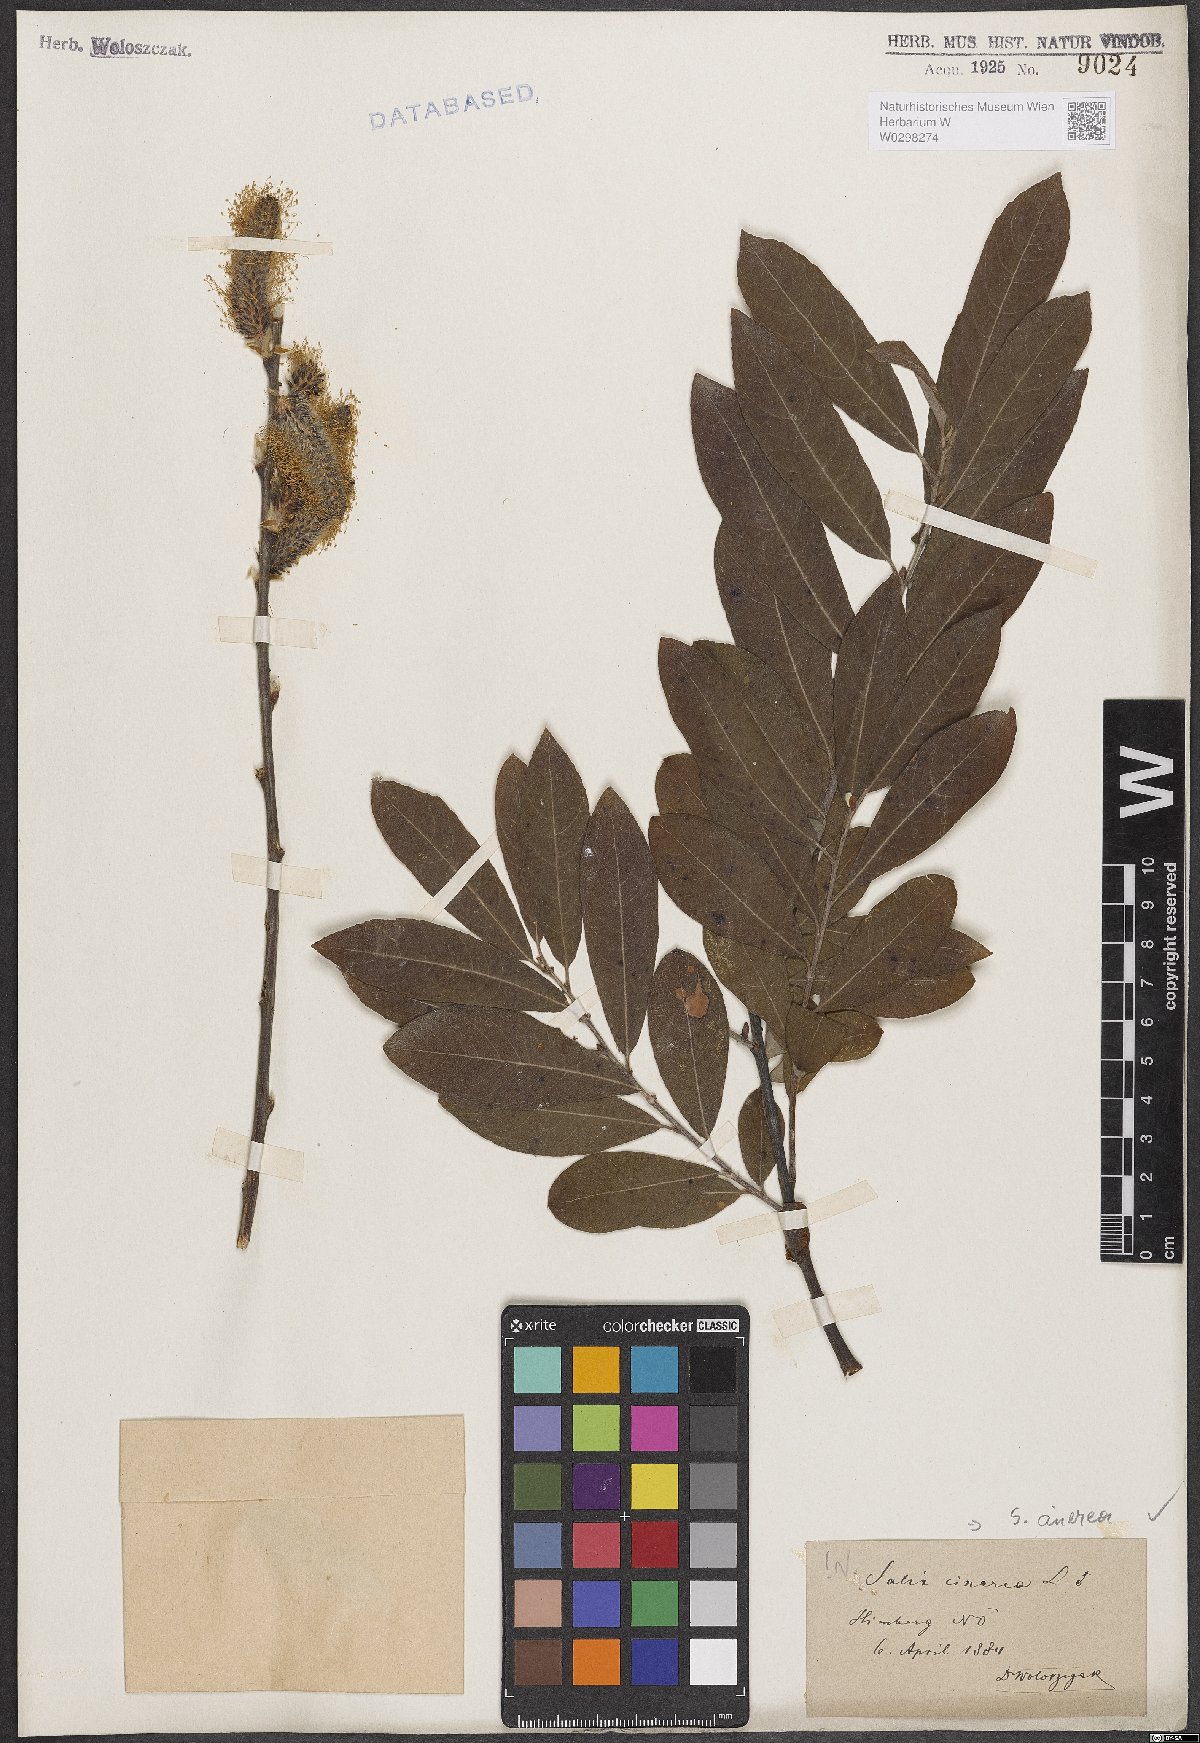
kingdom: Plantae
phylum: Tracheophyta
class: Magnoliopsida
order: Malpighiales
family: Salicaceae
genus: Salix
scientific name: Salix cinerea
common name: Common sallow
